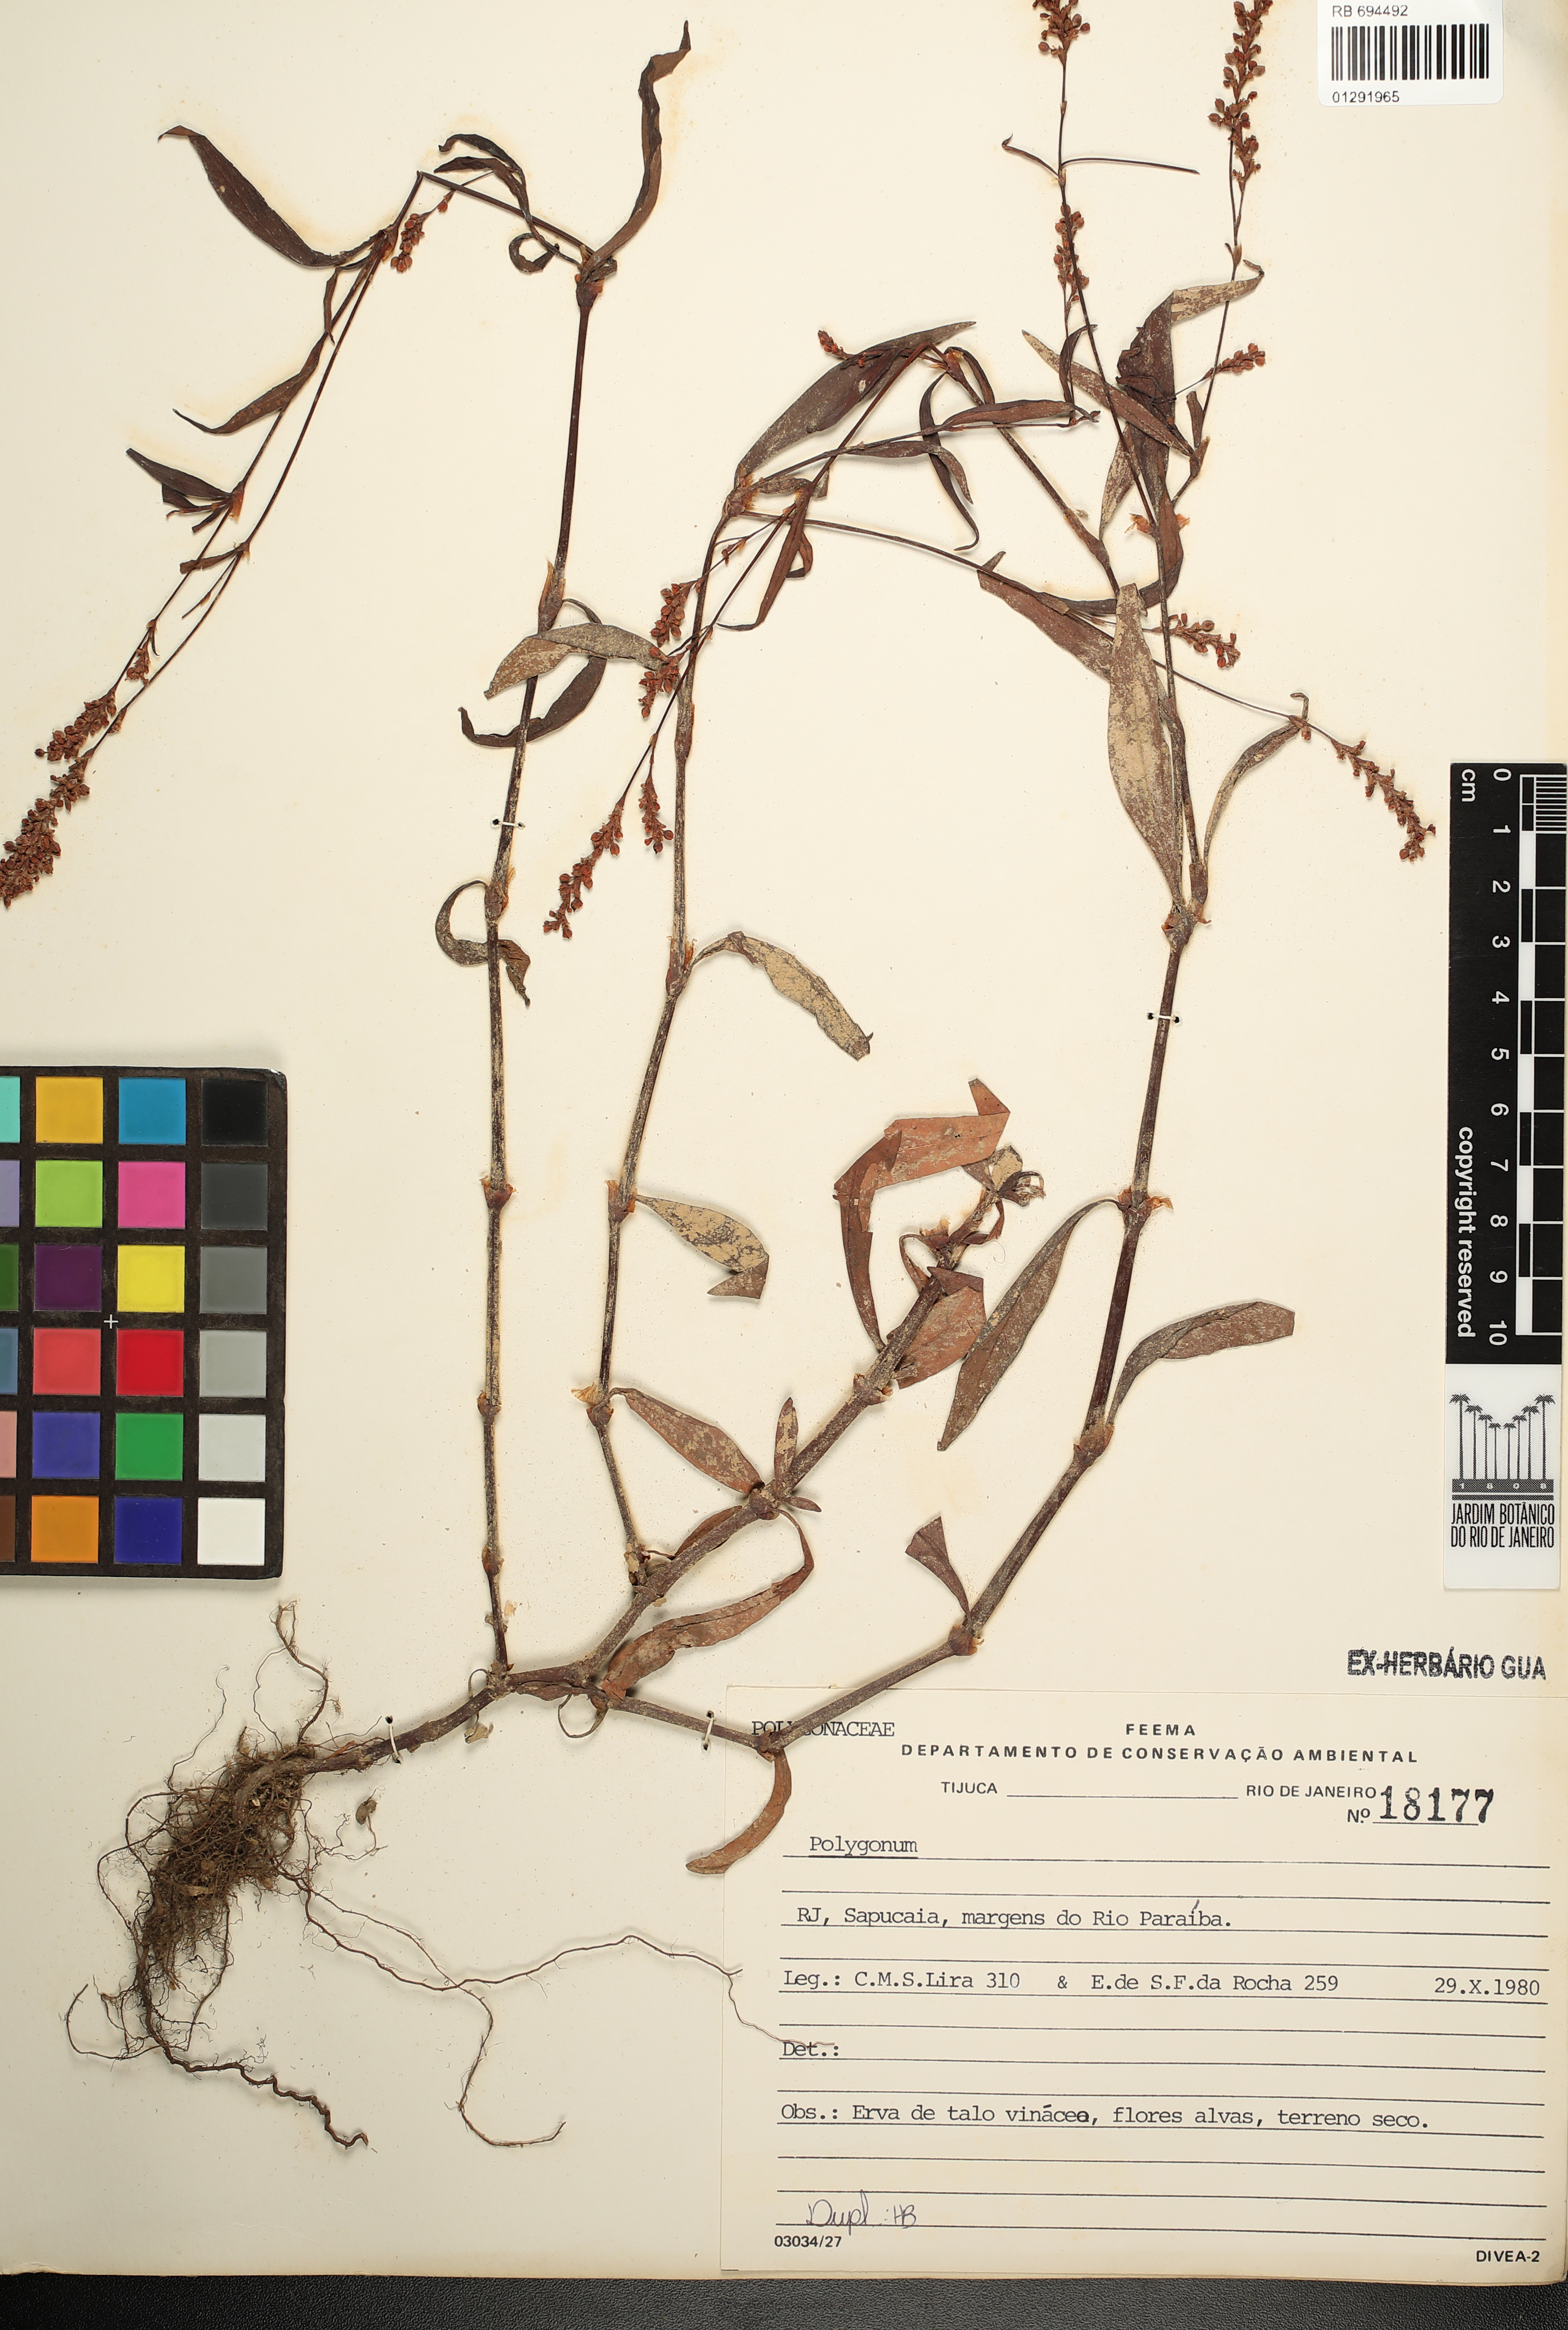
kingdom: Plantae
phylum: Tracheophyta
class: Magnoliopsida
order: Caryophyllales
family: Polygonaceae
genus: Polygonum
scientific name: Polygonum
